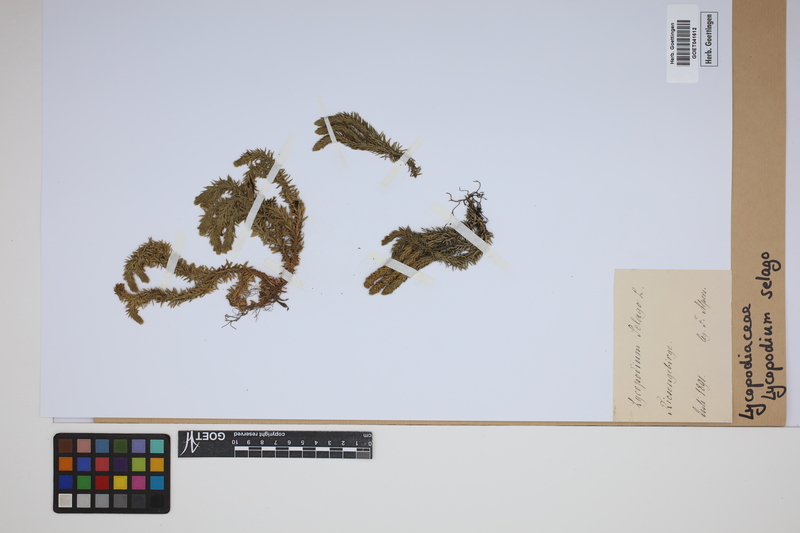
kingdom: Plantae
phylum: Tracheophyta
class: Lycopodiopsida
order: Lycopodiales
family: Lycopodiaceae
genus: Huperzia
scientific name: Huperzia selago
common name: Northern firmoss
